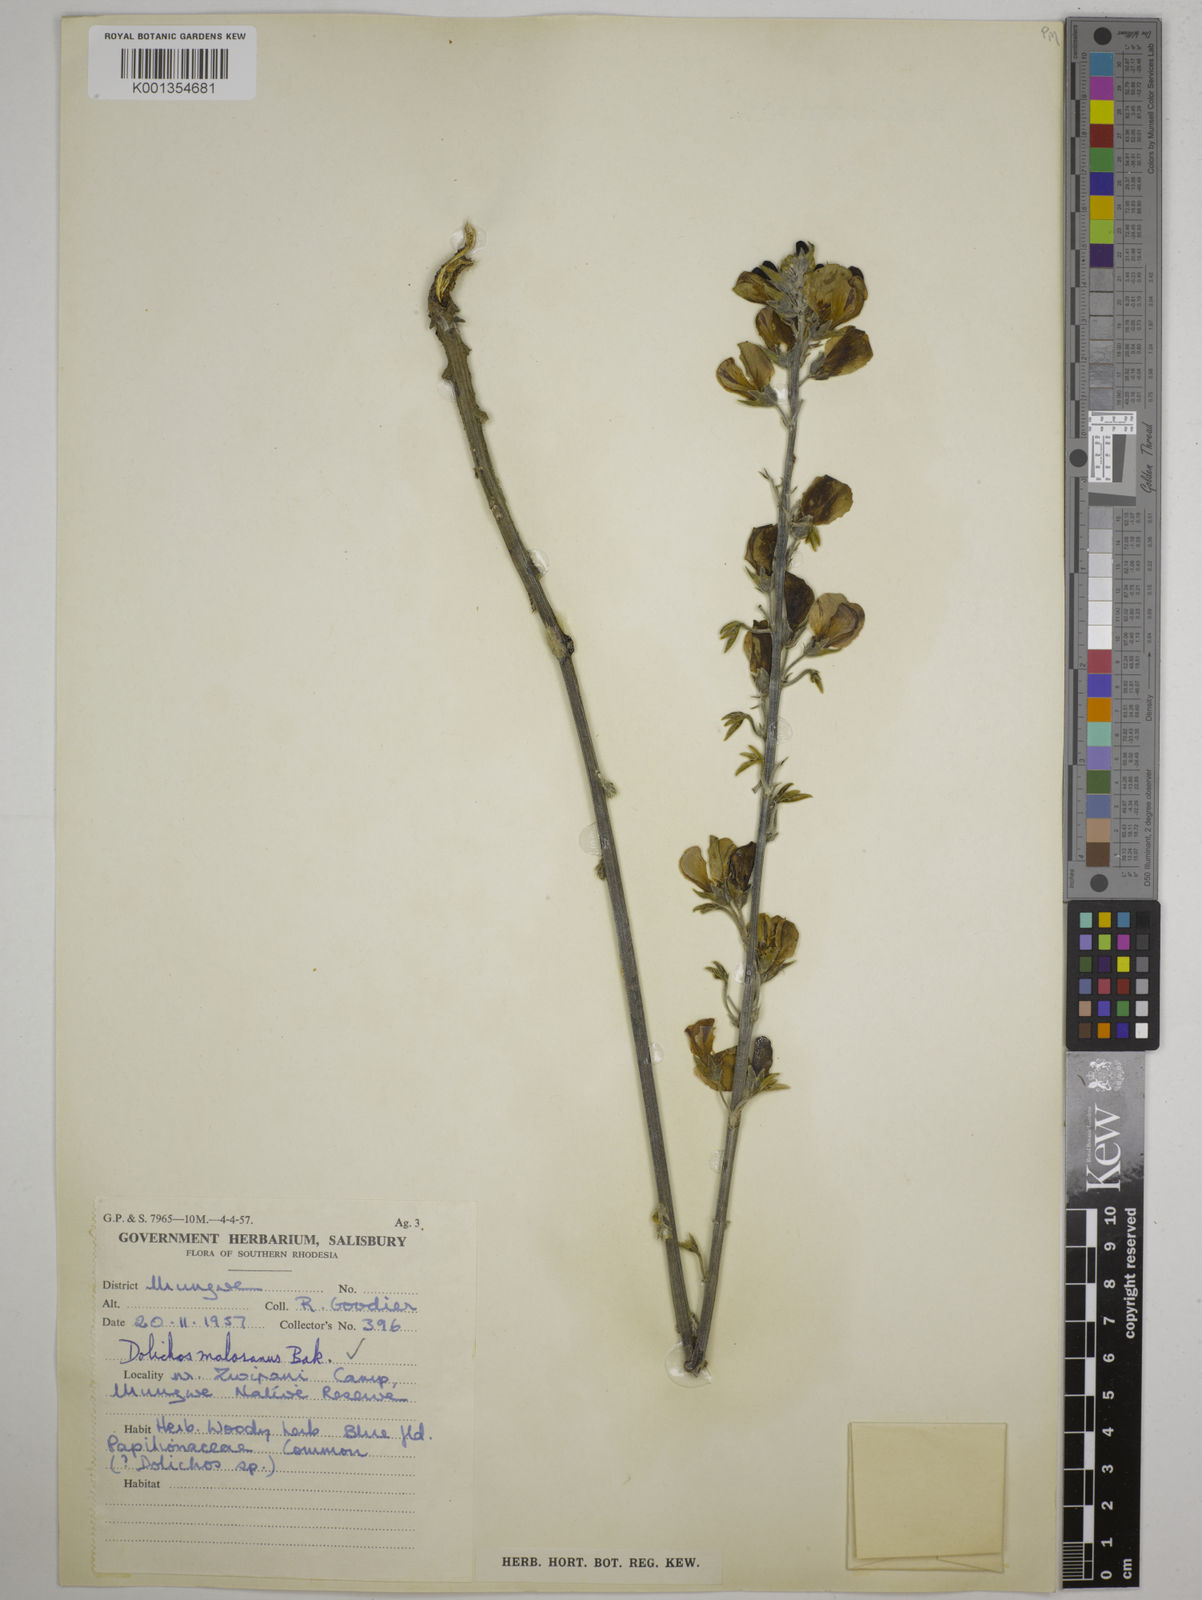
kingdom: Plantae
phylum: Tracheophyta
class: Magnoliopsida
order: Fabales
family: Fabaceae
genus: Dolichos
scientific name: Dolichos kilimandscharicus
